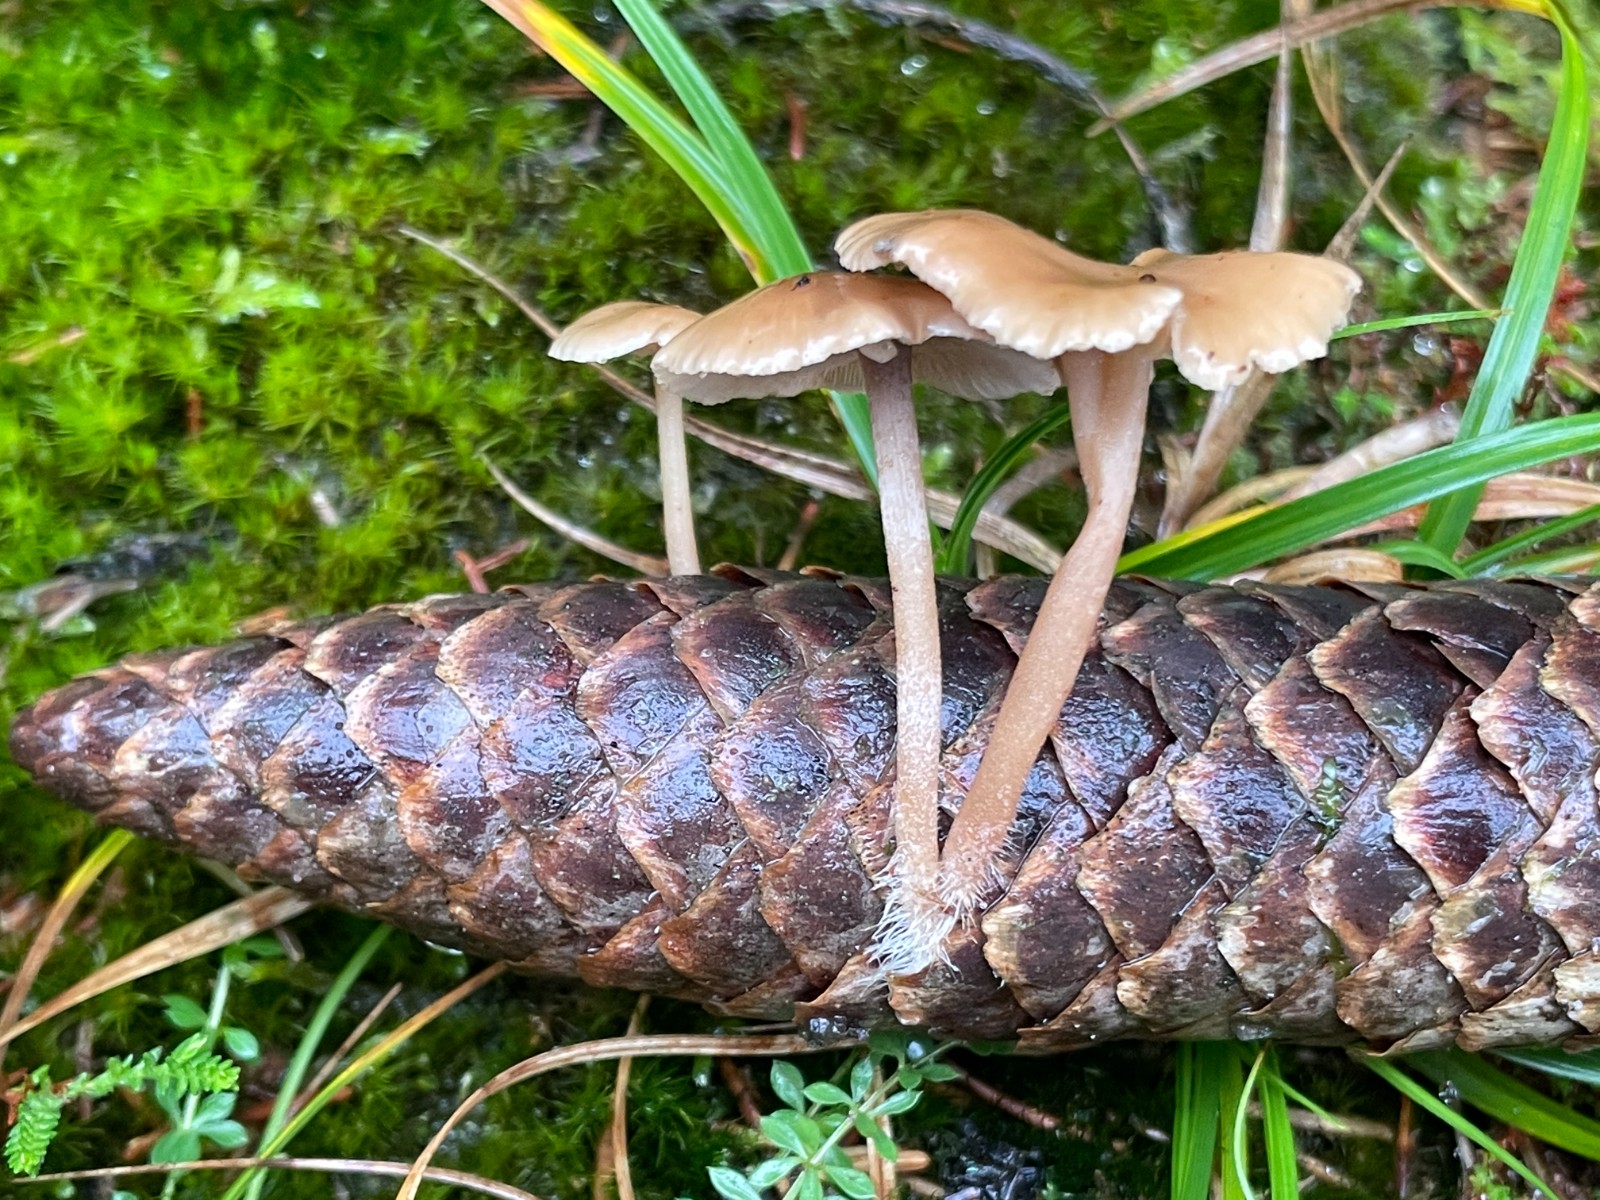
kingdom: Fungi
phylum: Basidiomycota
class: Agaricomycetes
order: Agaricales
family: Marasmiaceae
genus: Baeospora
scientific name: Baeospora myosura
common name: koglebruskhat
